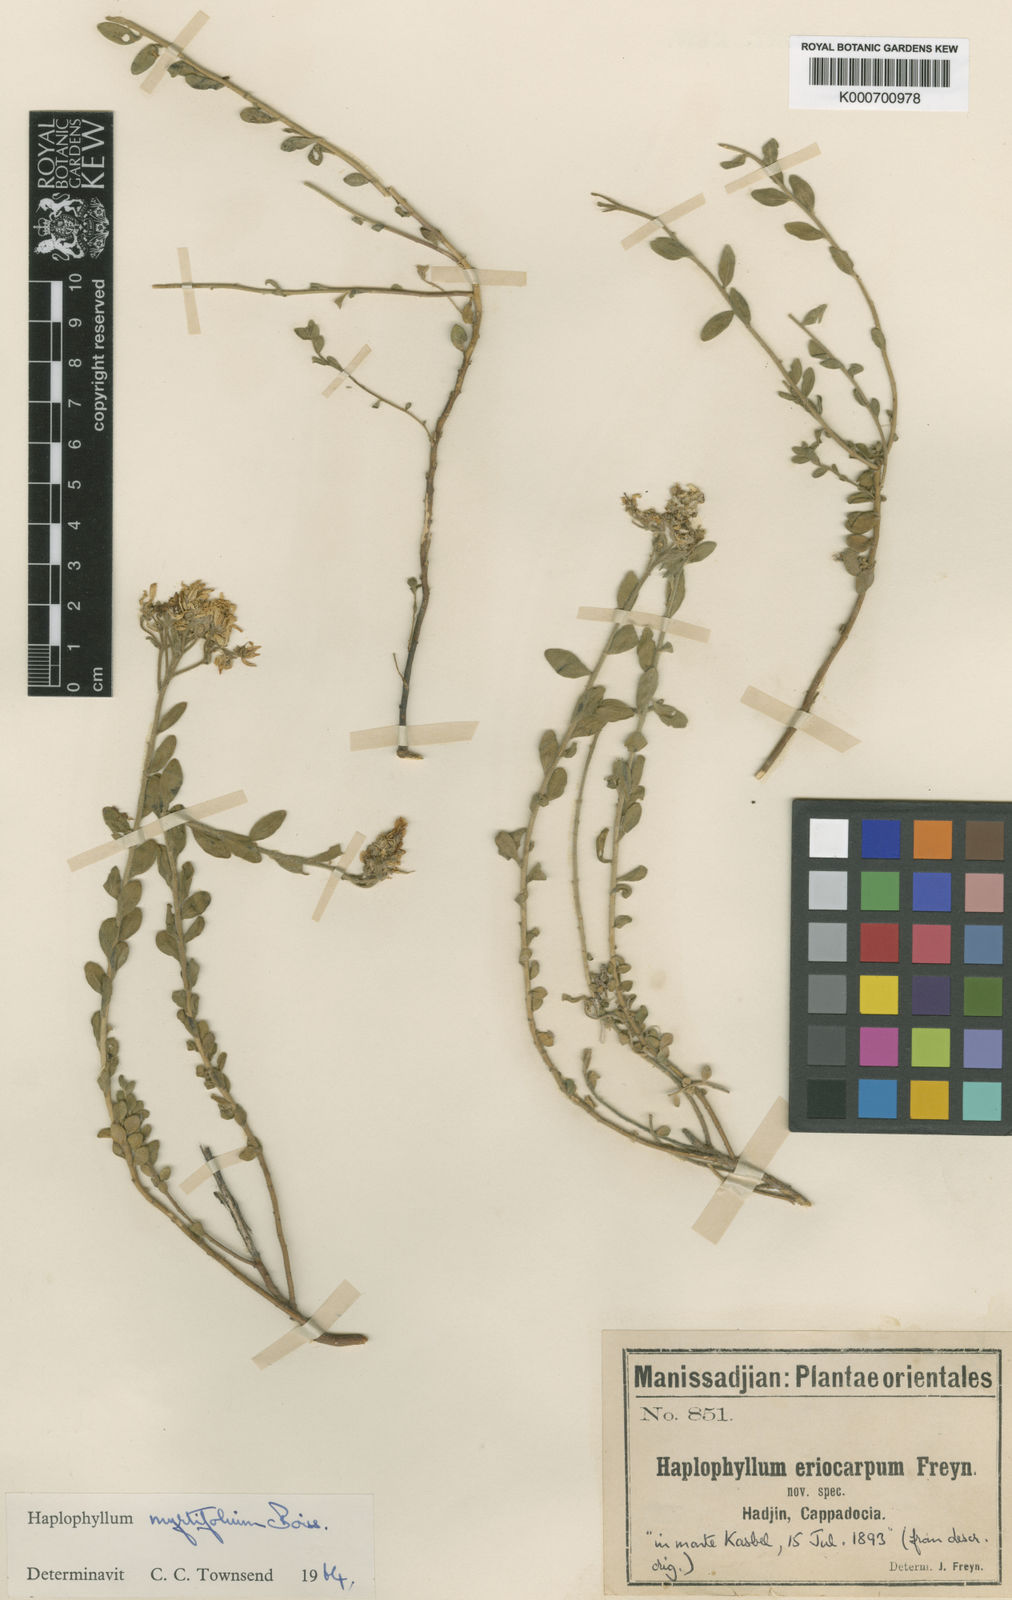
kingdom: Plantae
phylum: Tracheophyta
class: Magnoliopsida
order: Sapindales
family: Rutaceae
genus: Haplophyllum
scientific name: Haplophyllum myrtifolium
